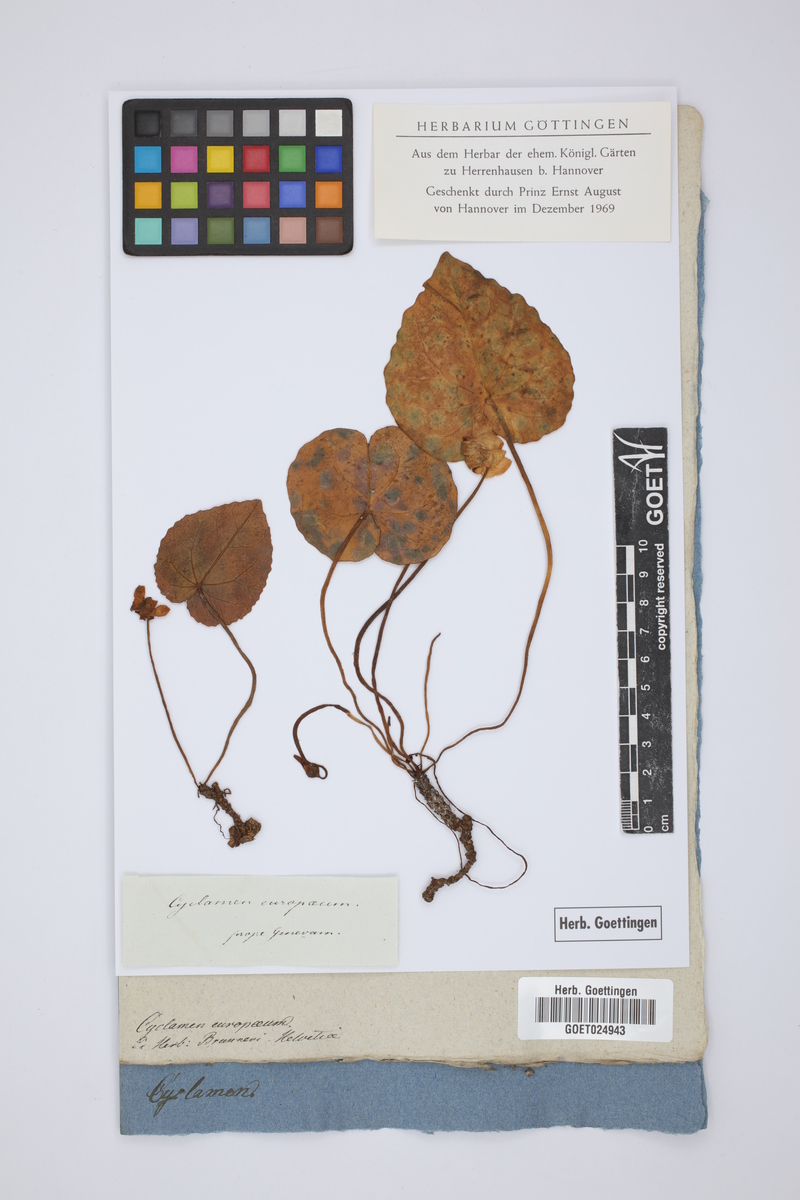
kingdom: Plantae
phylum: Tracheophyta
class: Magnoliopsida
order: Ericales
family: Primulaceae
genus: Cyclamen
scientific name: Cyclamen purpurascens
